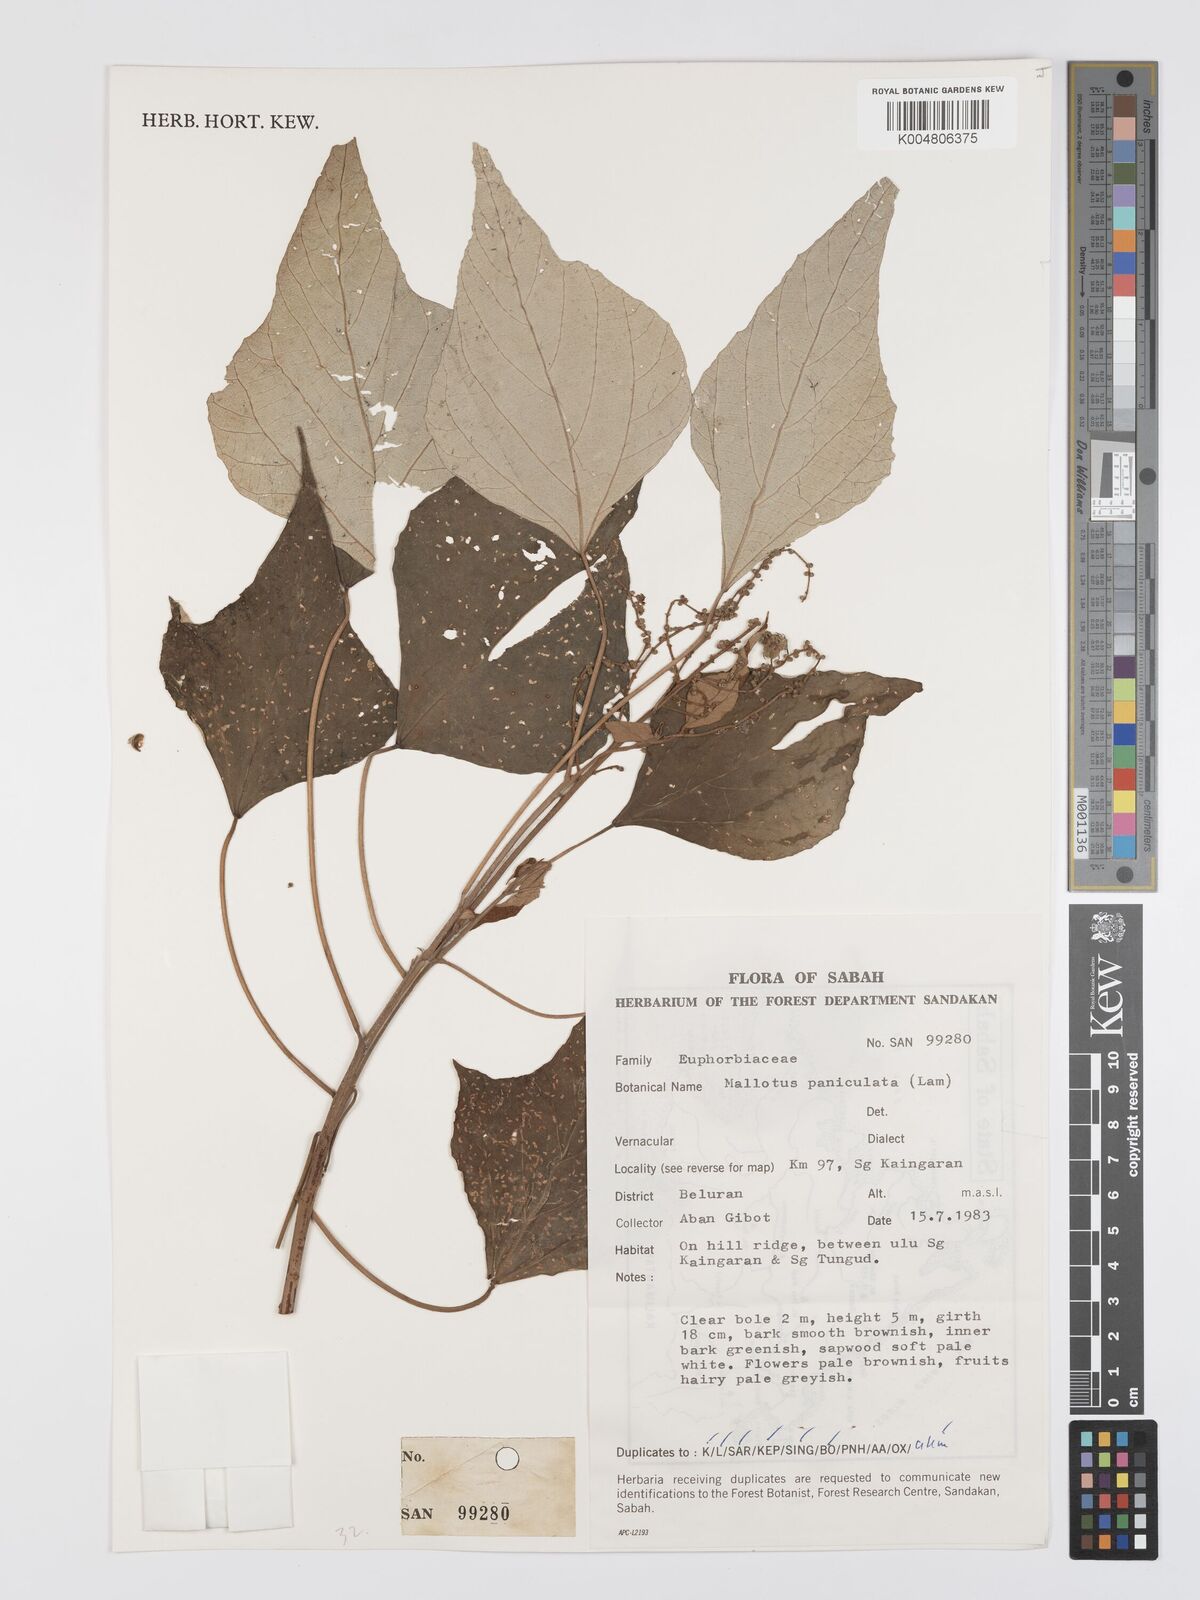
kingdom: Plantae
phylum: Tracheophyta
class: Magnoliopsida
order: Malpighiales
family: Euphorbiaceae
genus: Mallotus
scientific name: Mallotus paniculatus
